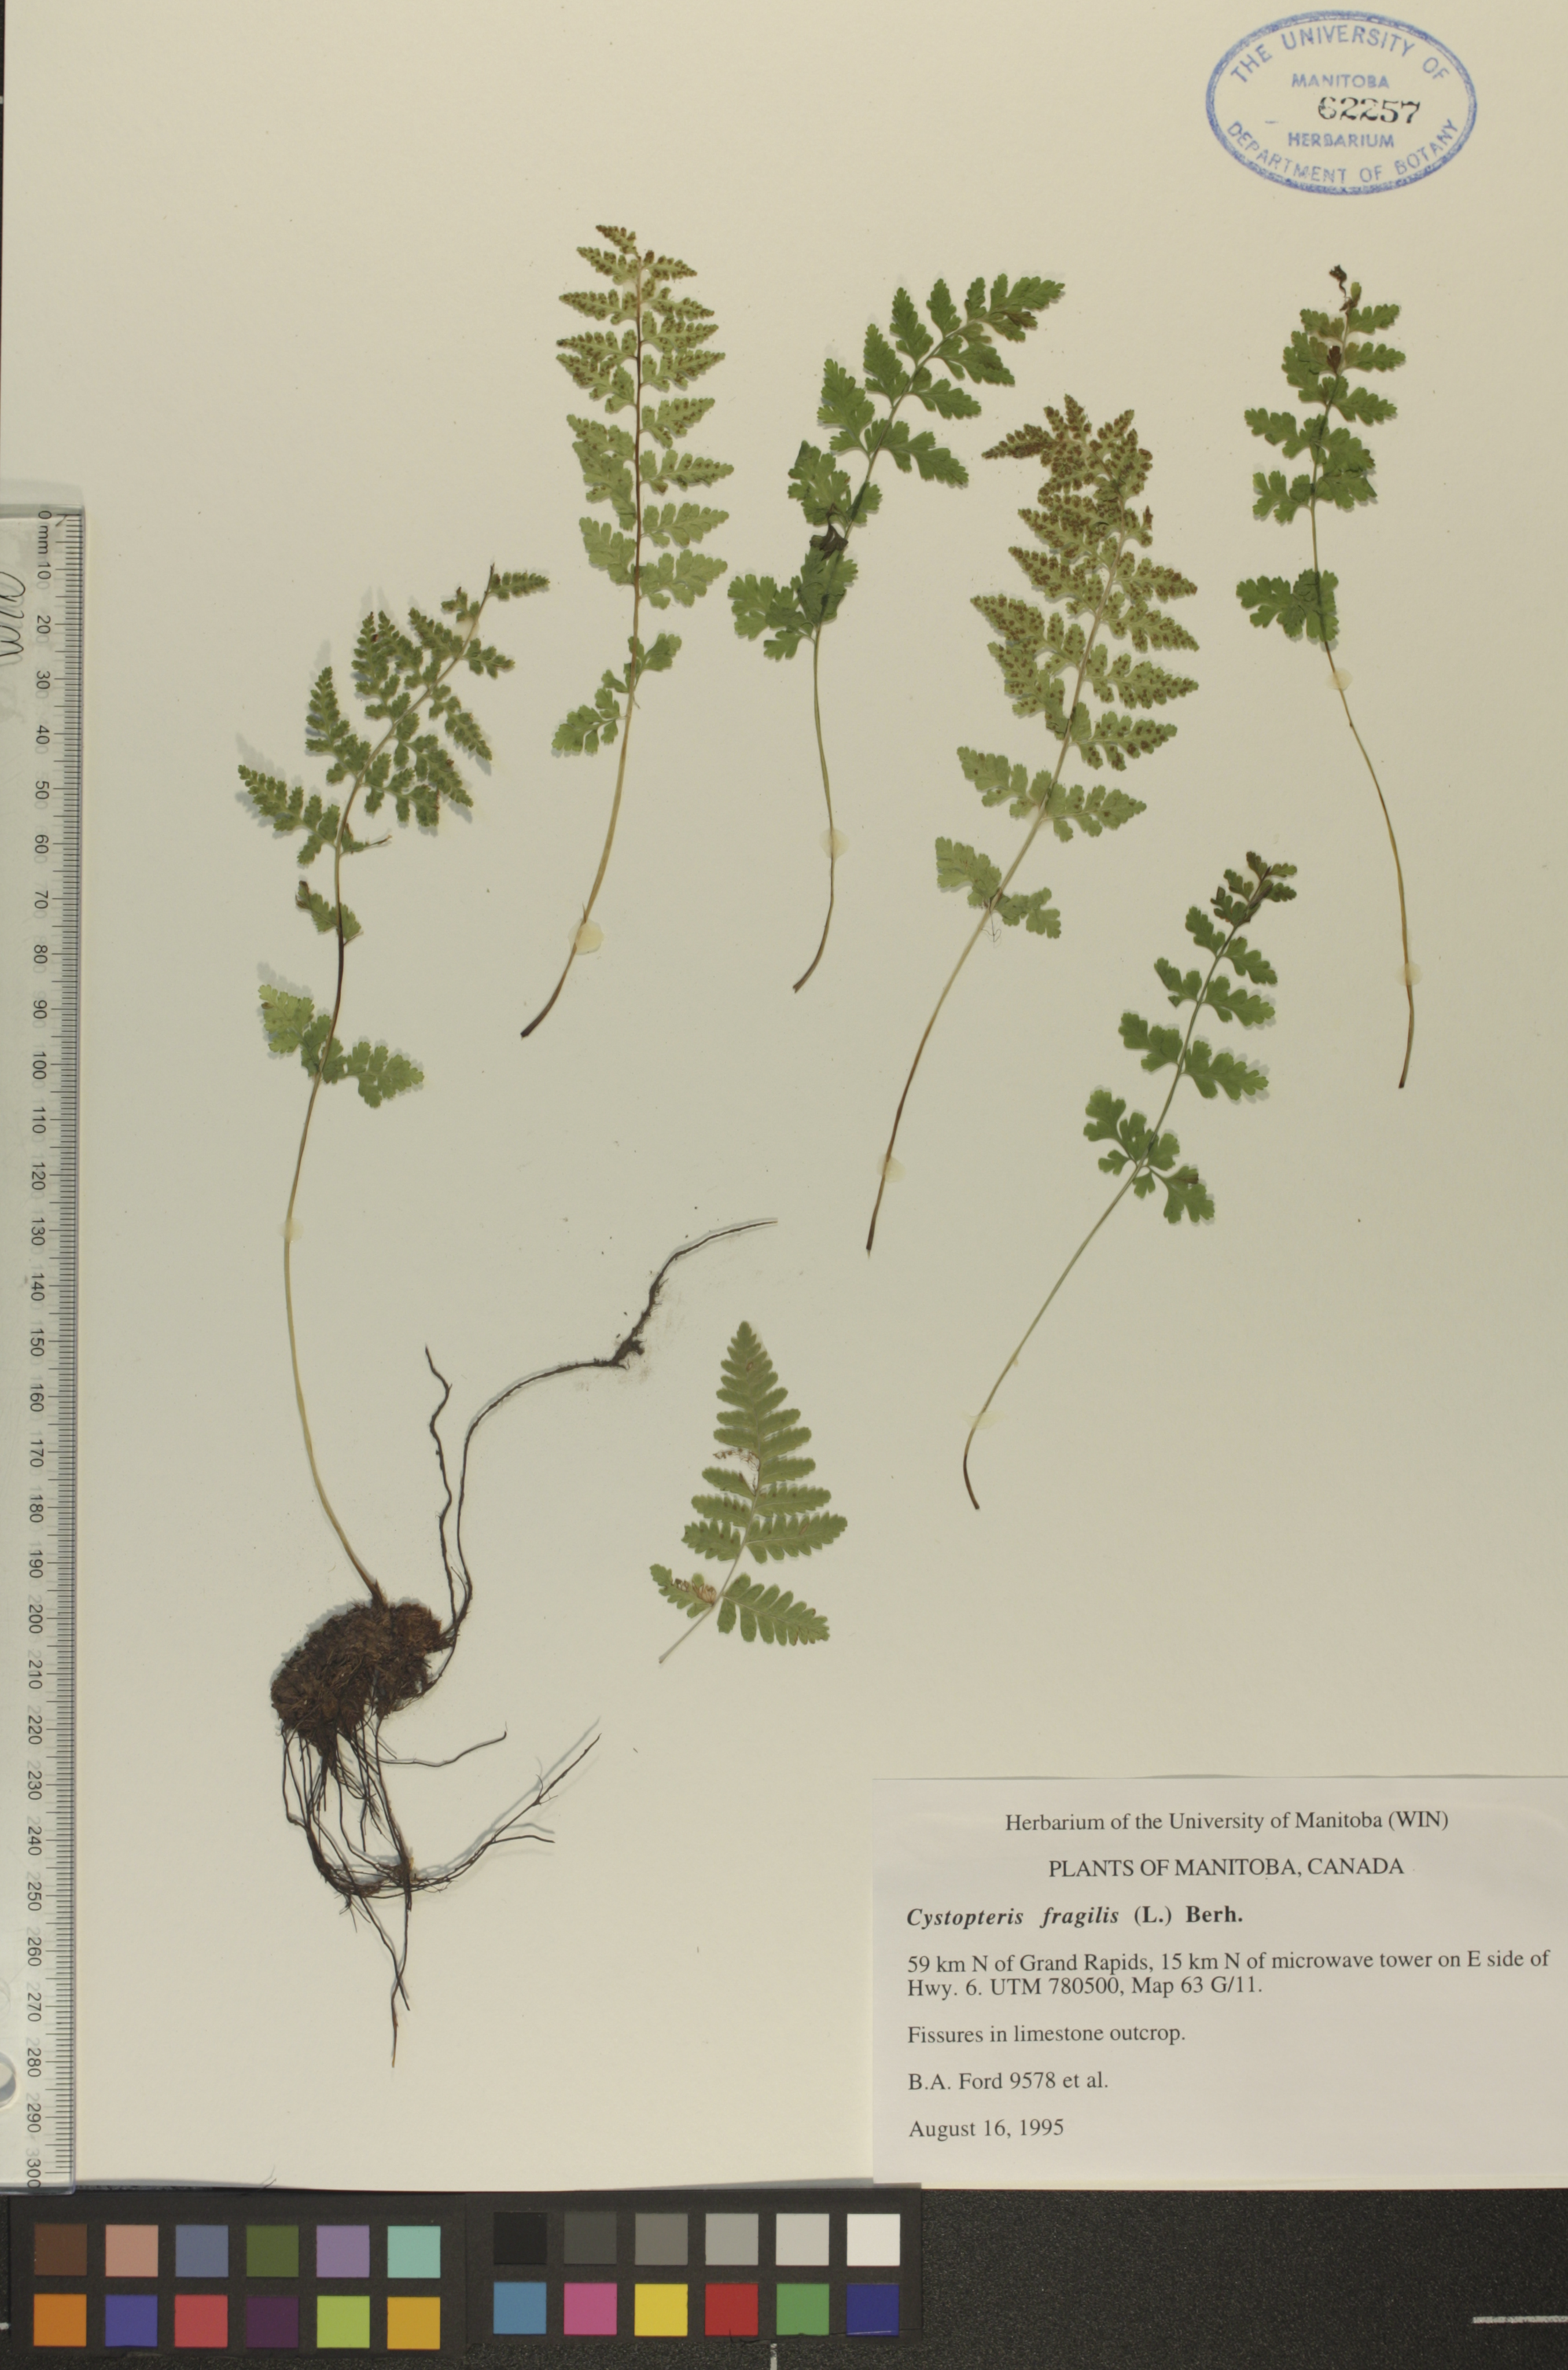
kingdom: Plantae
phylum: Tracheophyta
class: Polypodiopsida
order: Polypodiales
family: Cystopteridaceae
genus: Cystopteris
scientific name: Cystopteris fragilis
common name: Brittle bladder fern
